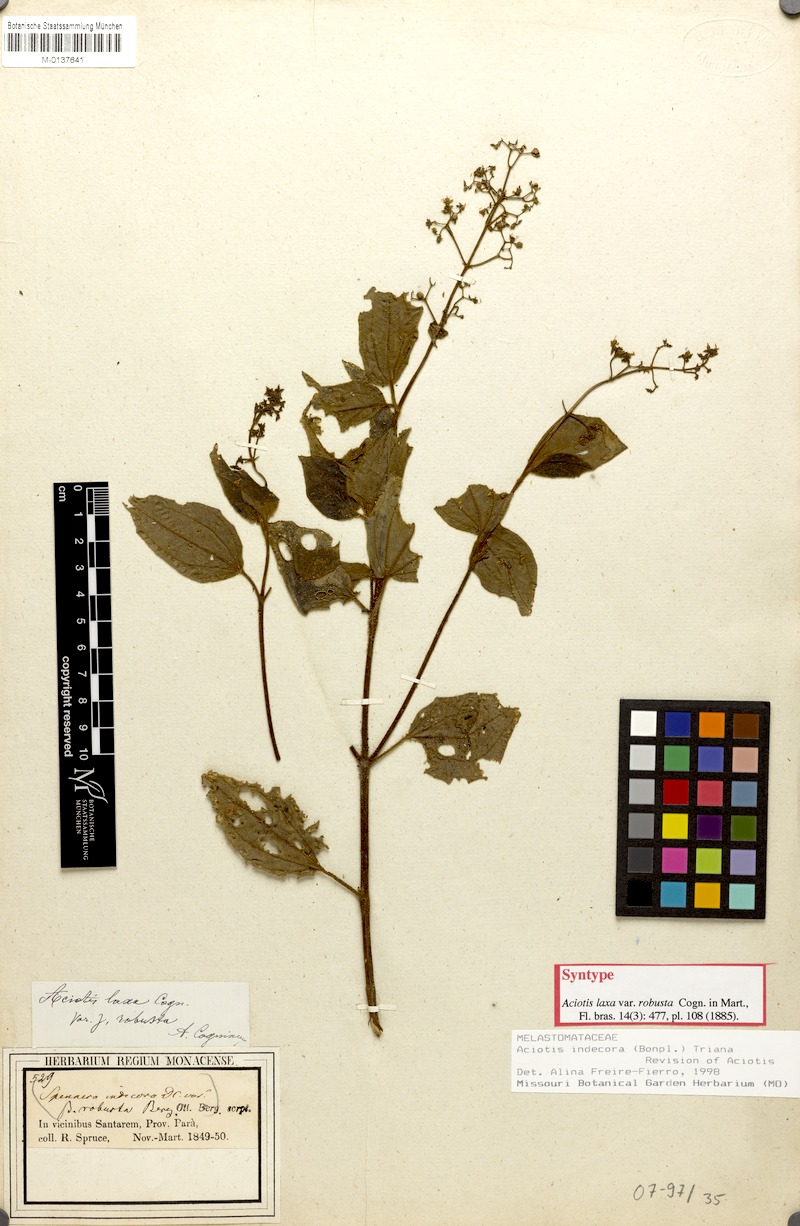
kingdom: Plantae
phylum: Tracheophyta
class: Magnoliopsida
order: Myrtales
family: Melastomataceae
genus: Aciotis
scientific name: Aciotis indecora
